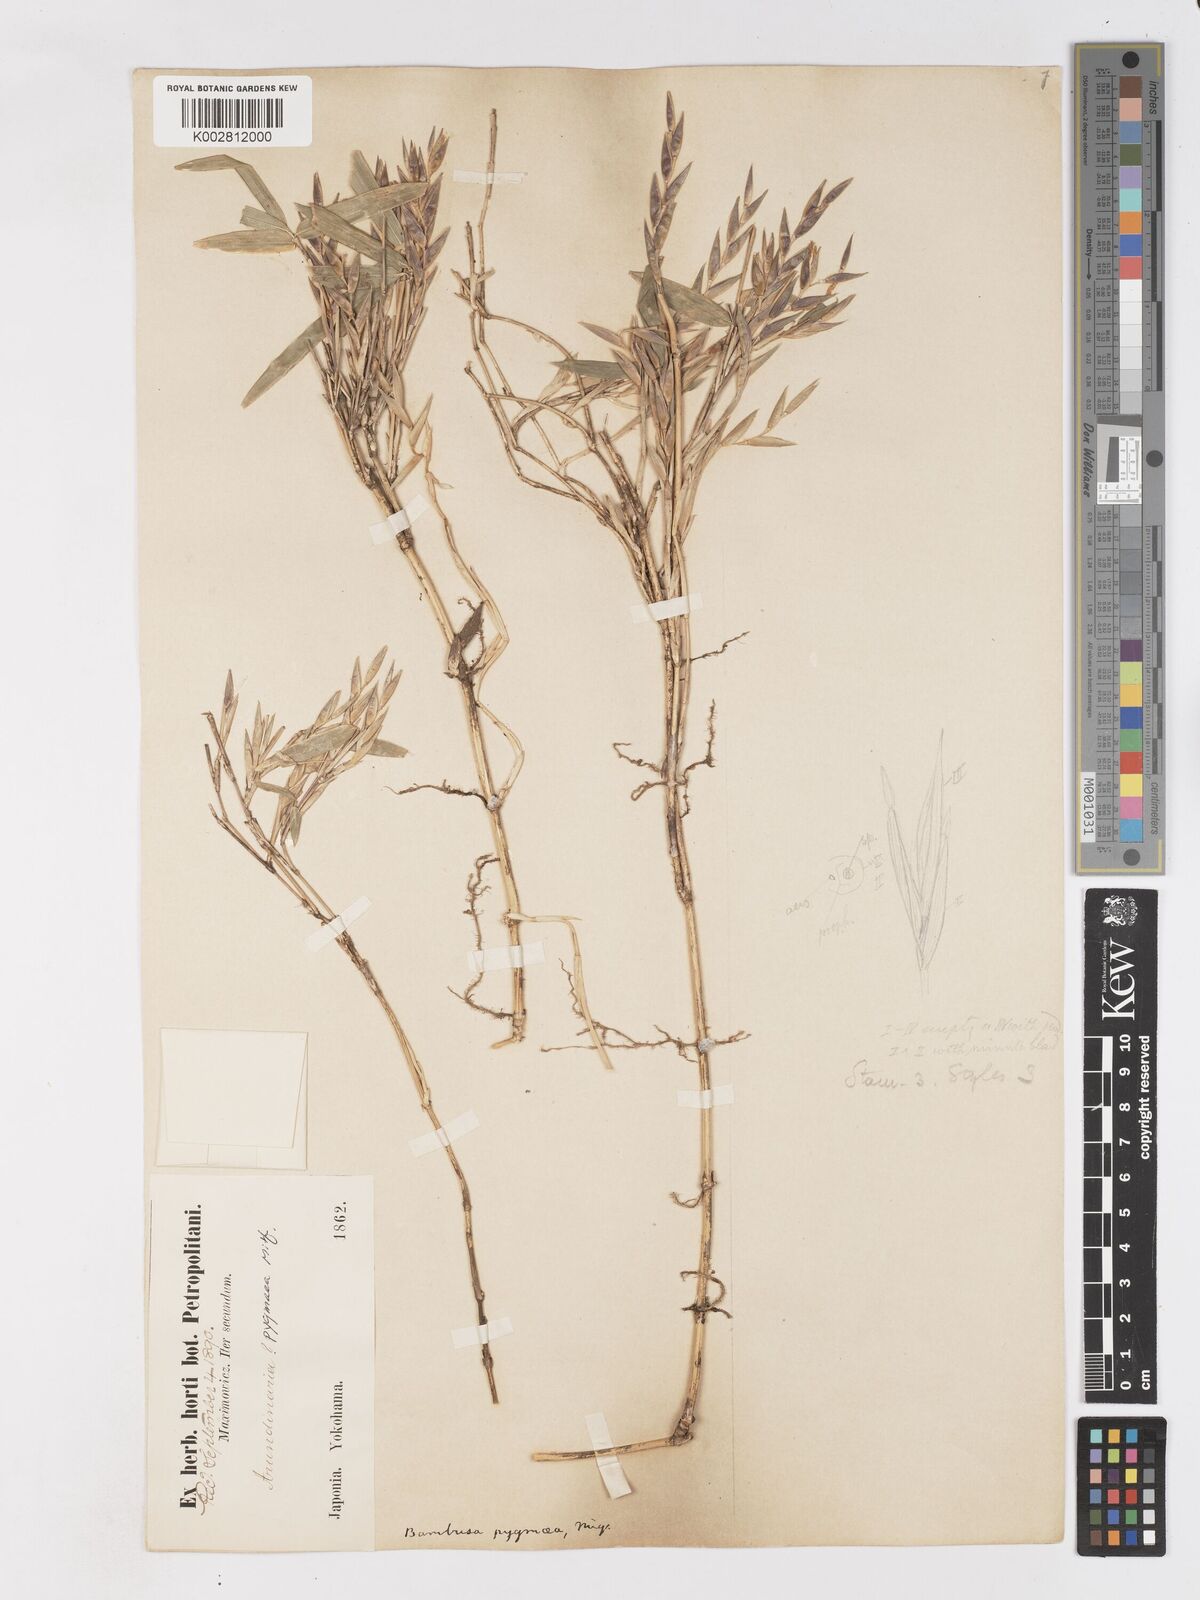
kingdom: Plantae
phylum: Tracheophyta
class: Liliopsida
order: Poales
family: Poaceae
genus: Pleioblastus
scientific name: Pleioblastus variegatus
